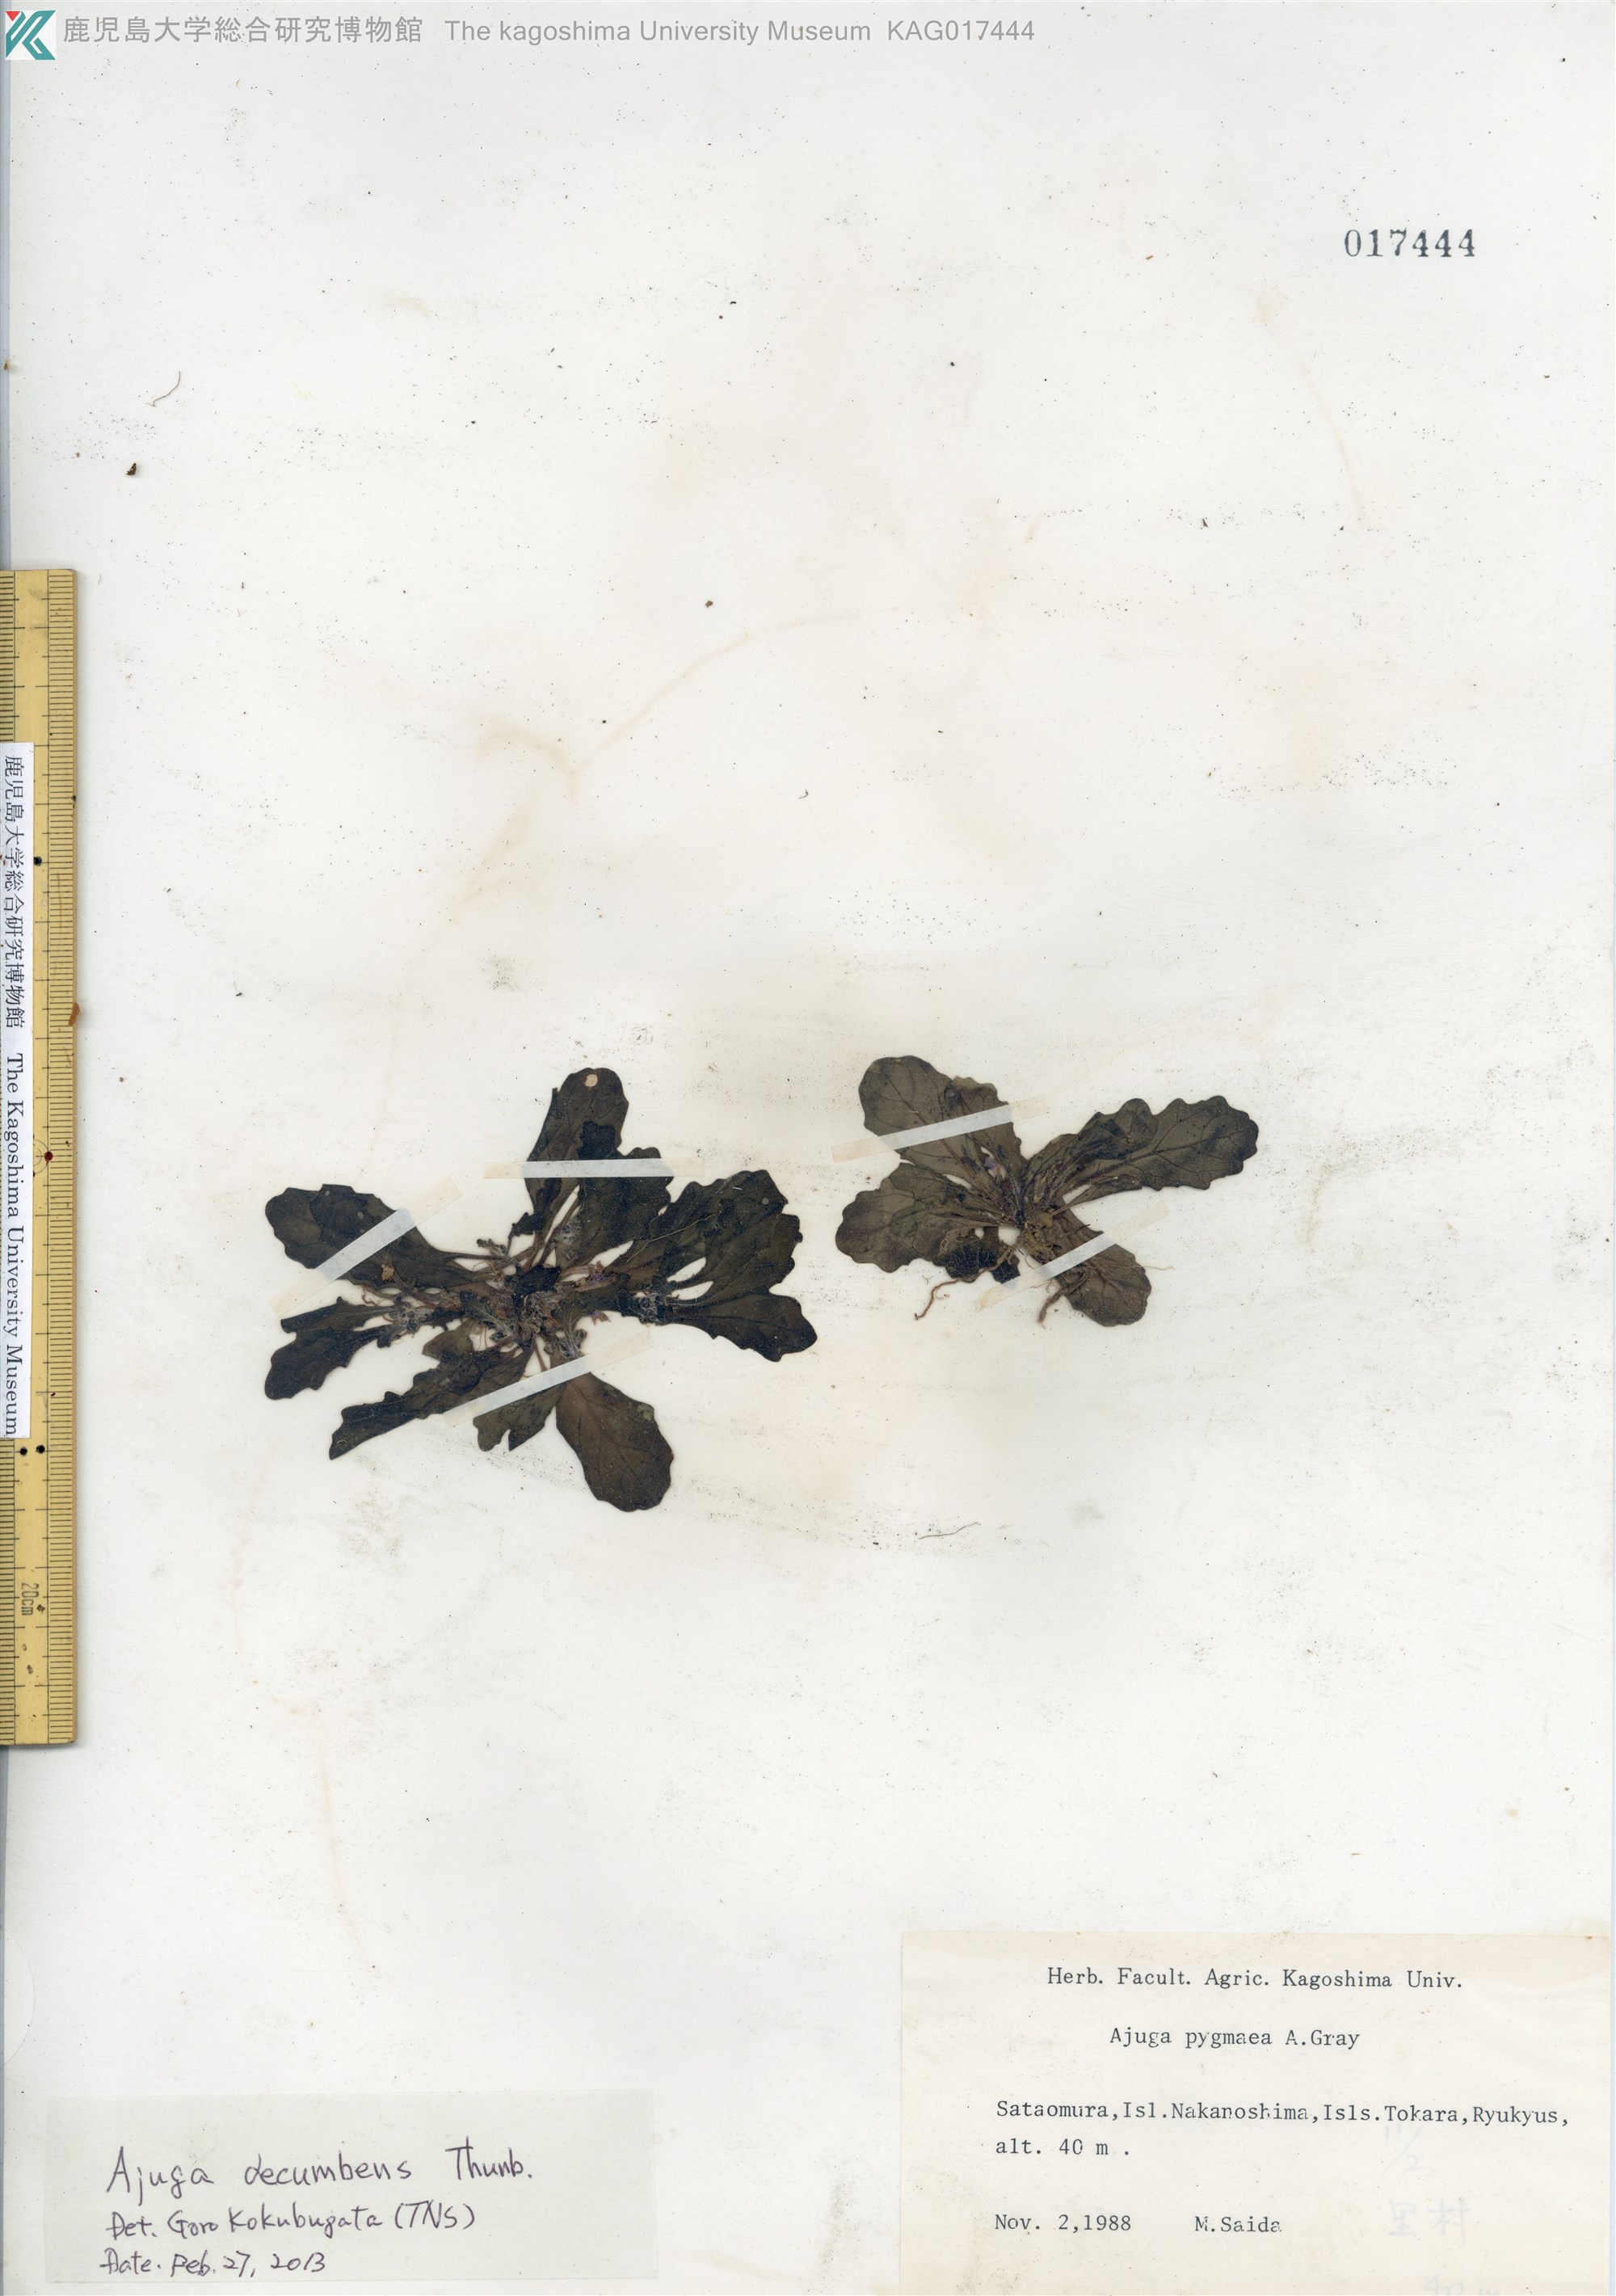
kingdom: Plantae
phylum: Tracheophyta
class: Magnoliopsida
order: Lamiales
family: Lamiaceae
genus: Ajuga
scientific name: Ajuga decumbens
